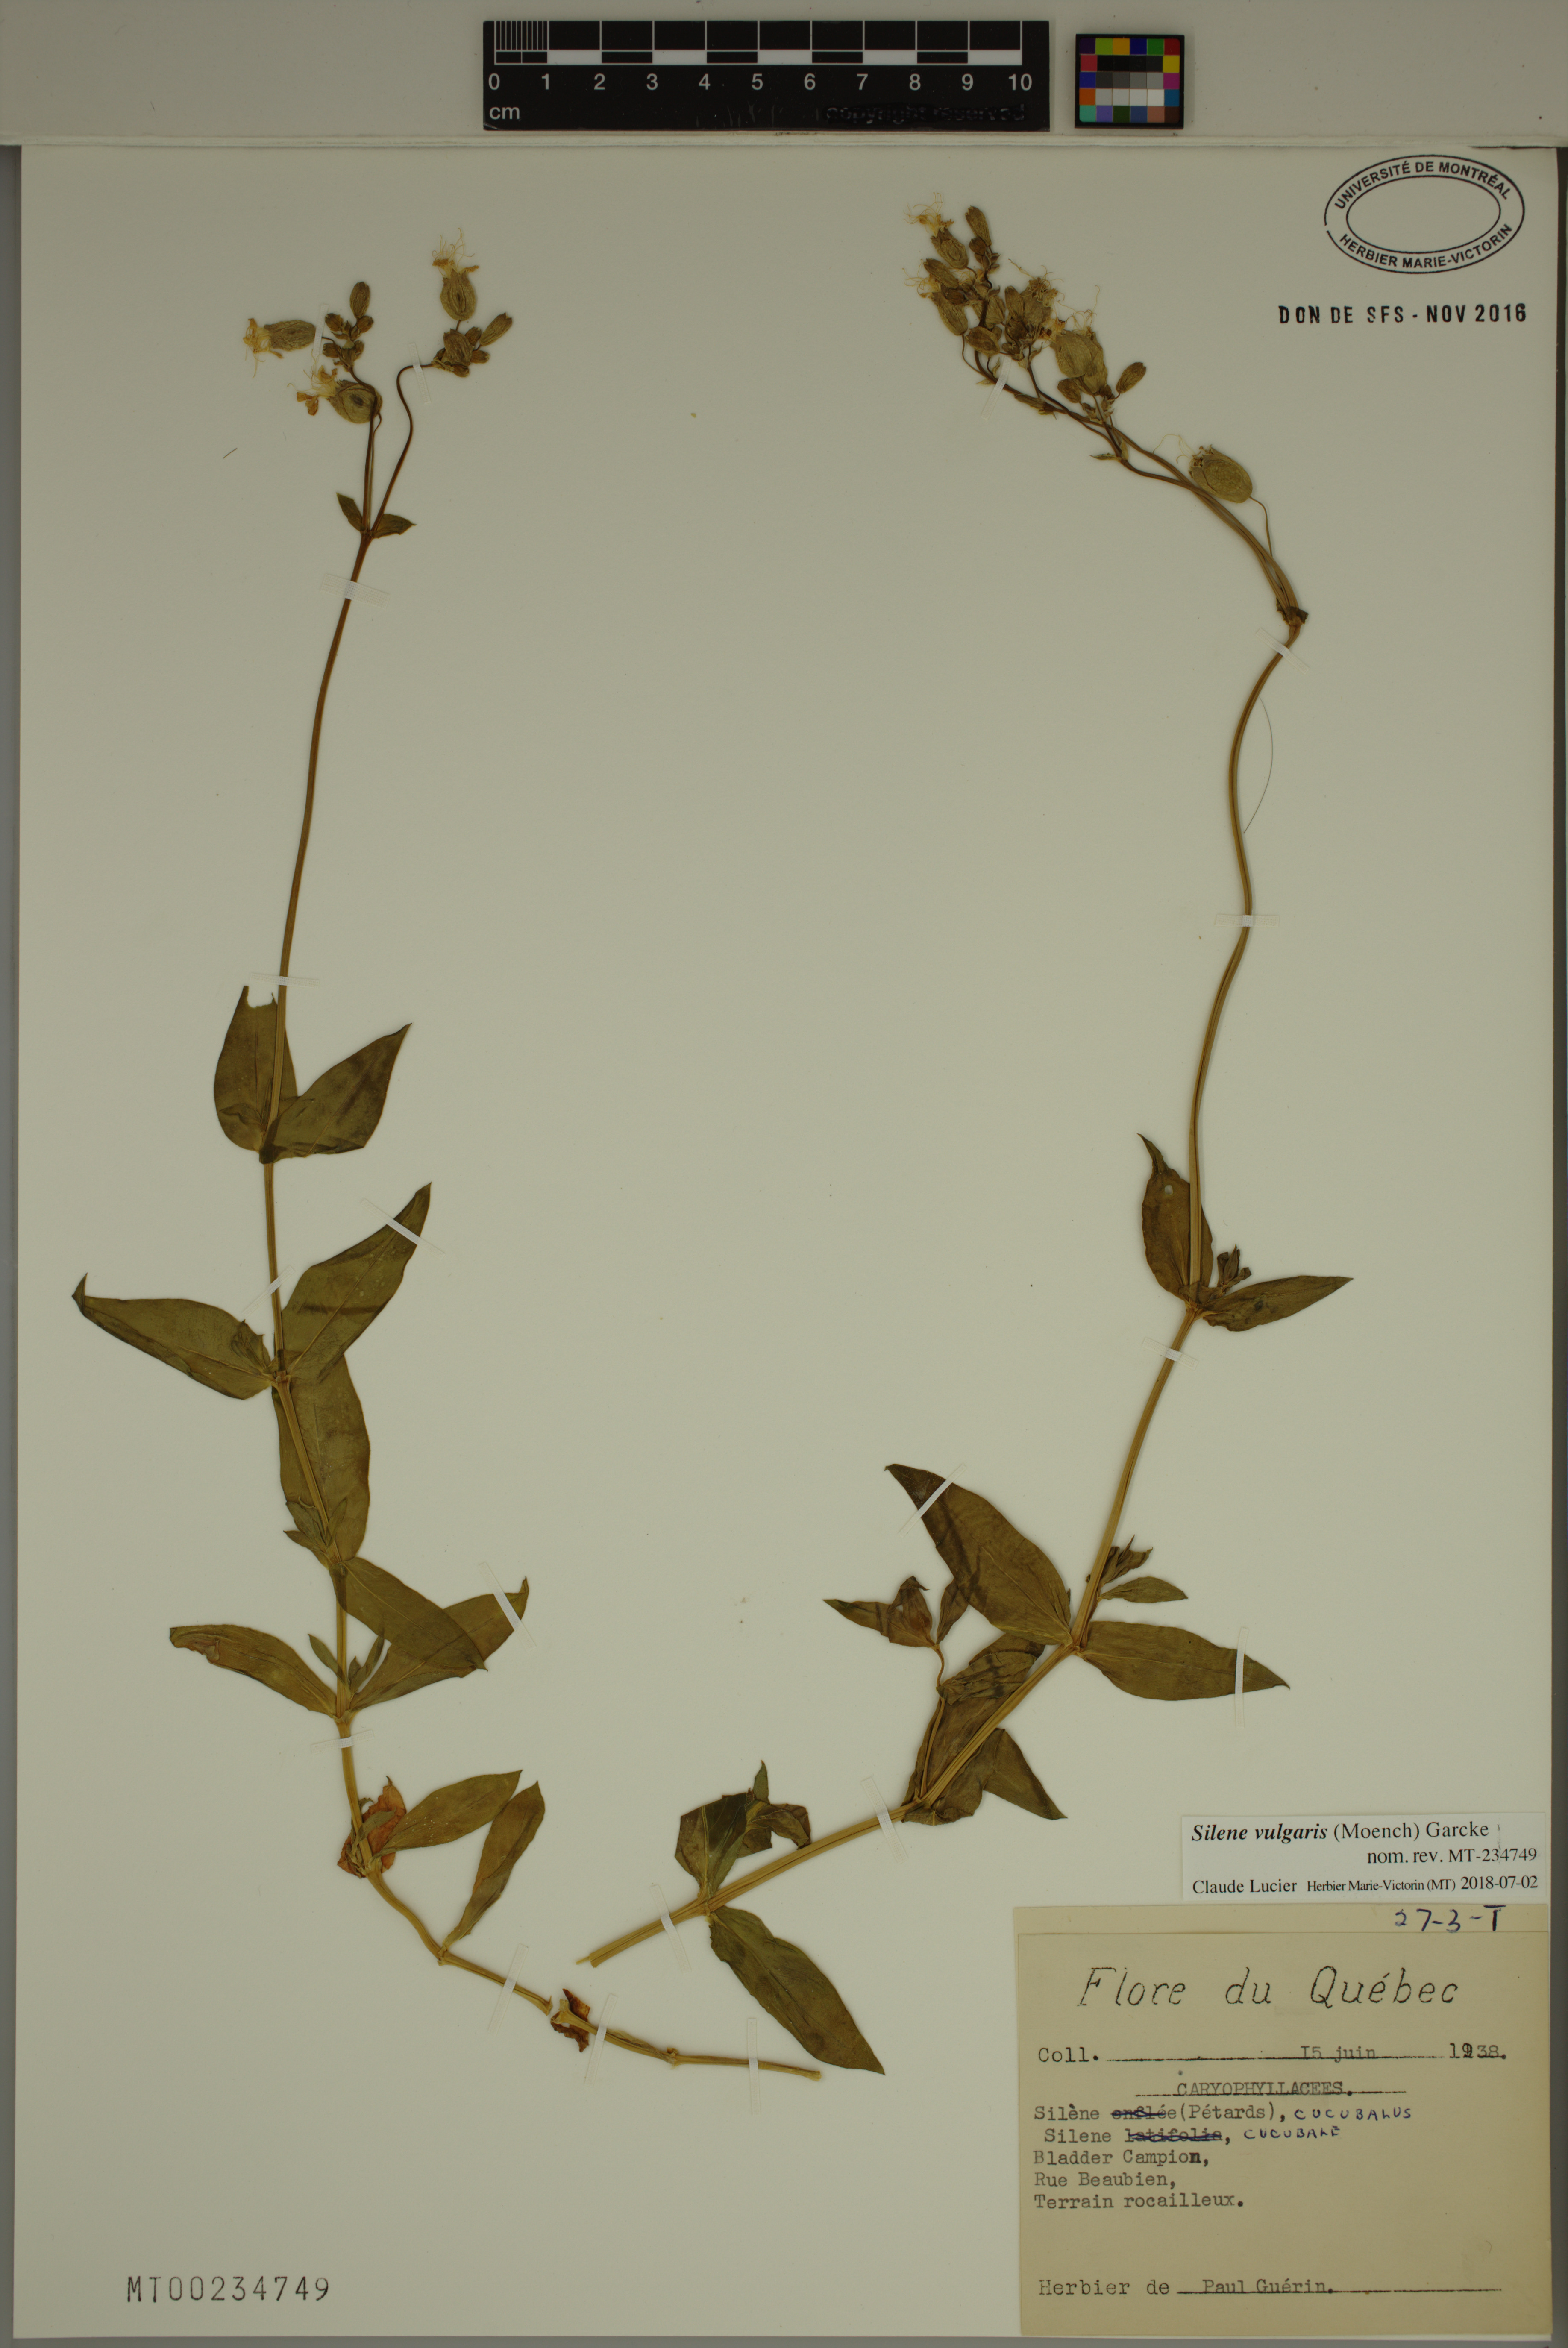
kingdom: Plantae
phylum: Tracheophyta
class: Magnoliopsida
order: Caryophyllales
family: Caryophyllaceae
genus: Silene
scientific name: Silene vulgaris
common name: Bladder campion
